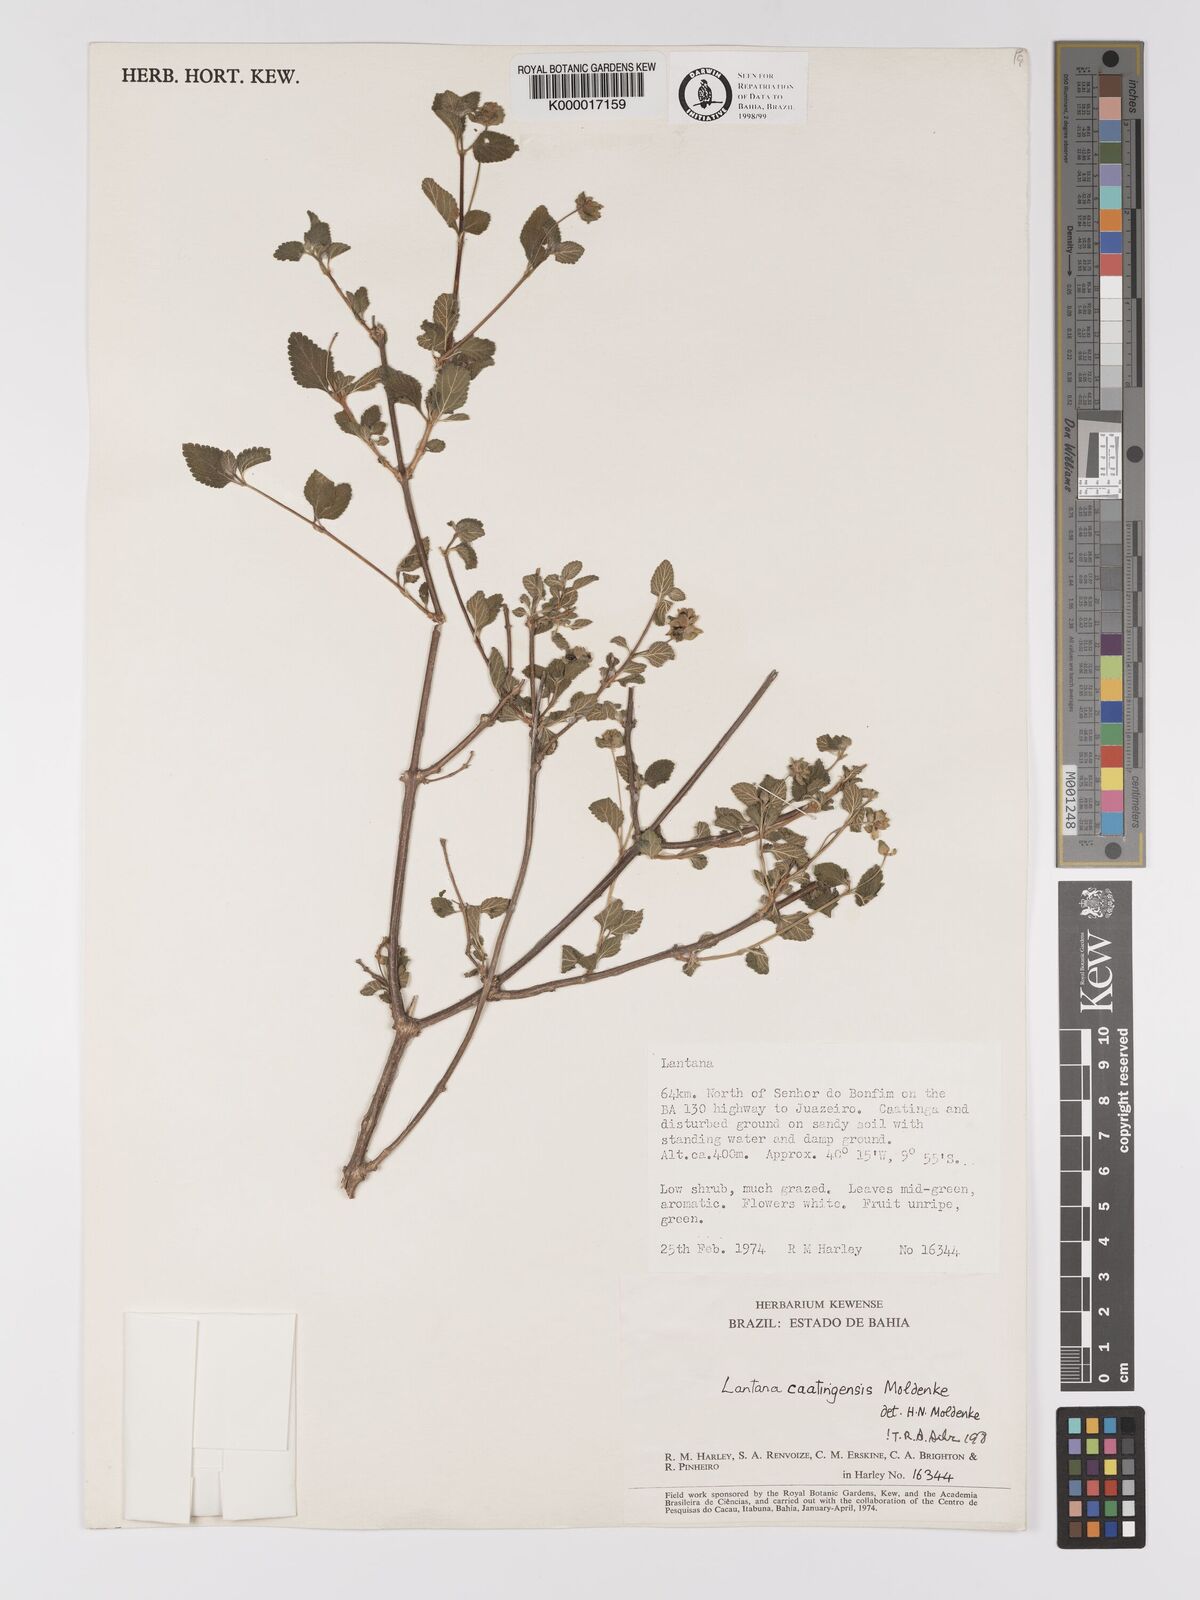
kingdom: Plantae
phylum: Tracheophyta
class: Magnoliopsida
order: Lamiales
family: Verbenaceae
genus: Lantana
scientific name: Lantana caatingensis
